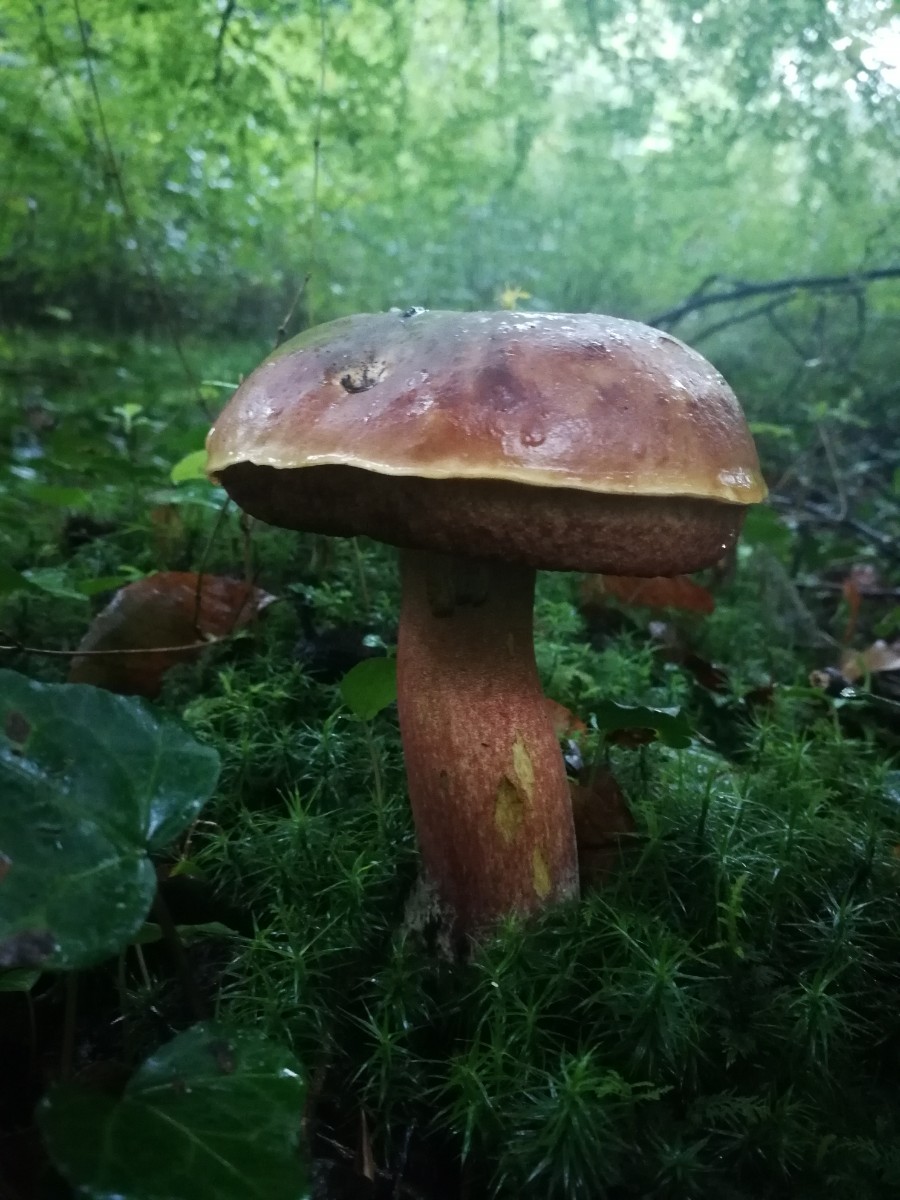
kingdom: Fungi
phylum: Basidiomycota
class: Agaricomycetes
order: Boletales
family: Boletaceae
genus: Neoboletus
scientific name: Neoboletus erythropus
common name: punktstokket indigorørhat
